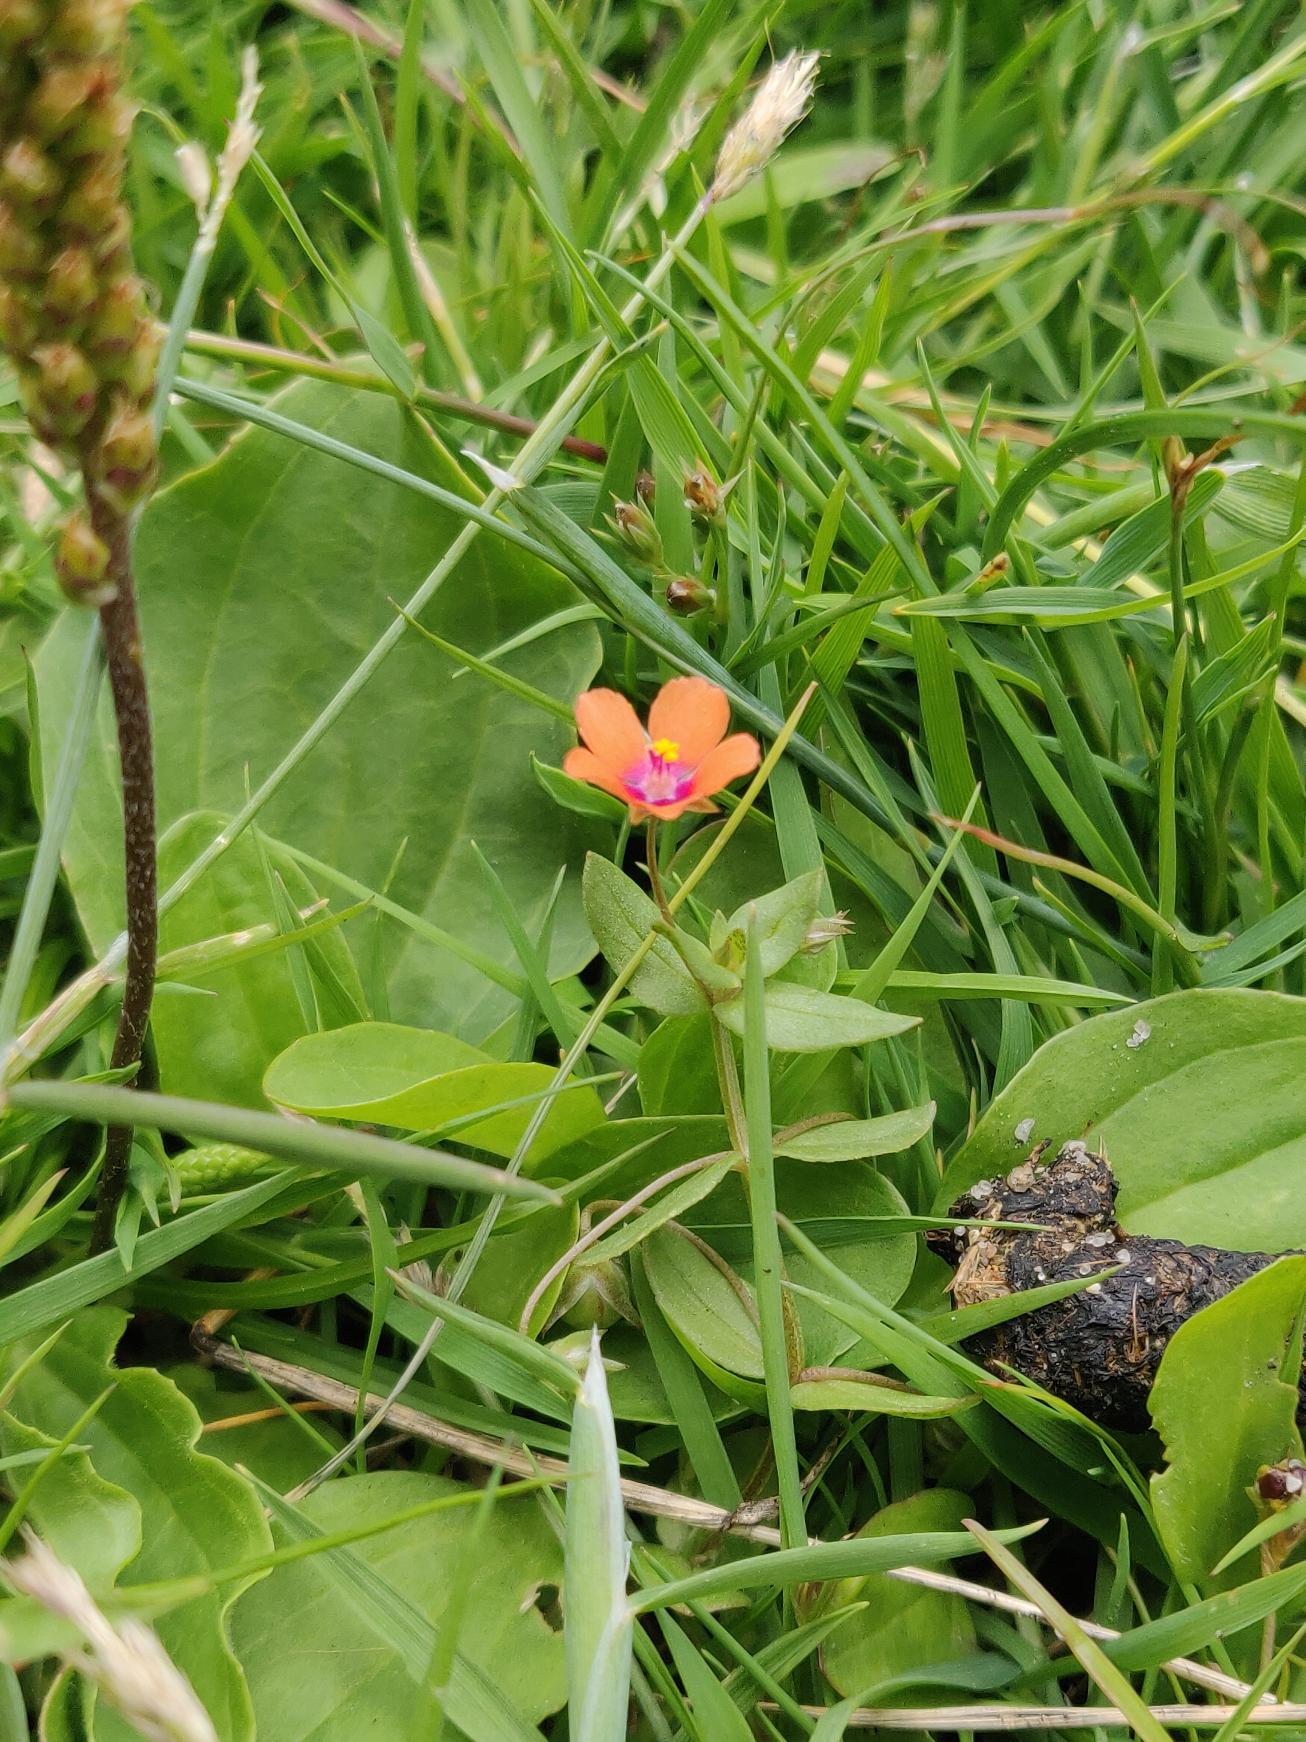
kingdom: Plantae
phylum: Tracheophyta
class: Magnoliopsida
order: Ericales
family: Primulaceae
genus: Lysimachia
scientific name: Lysimachia arvensis
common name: Rød arve
